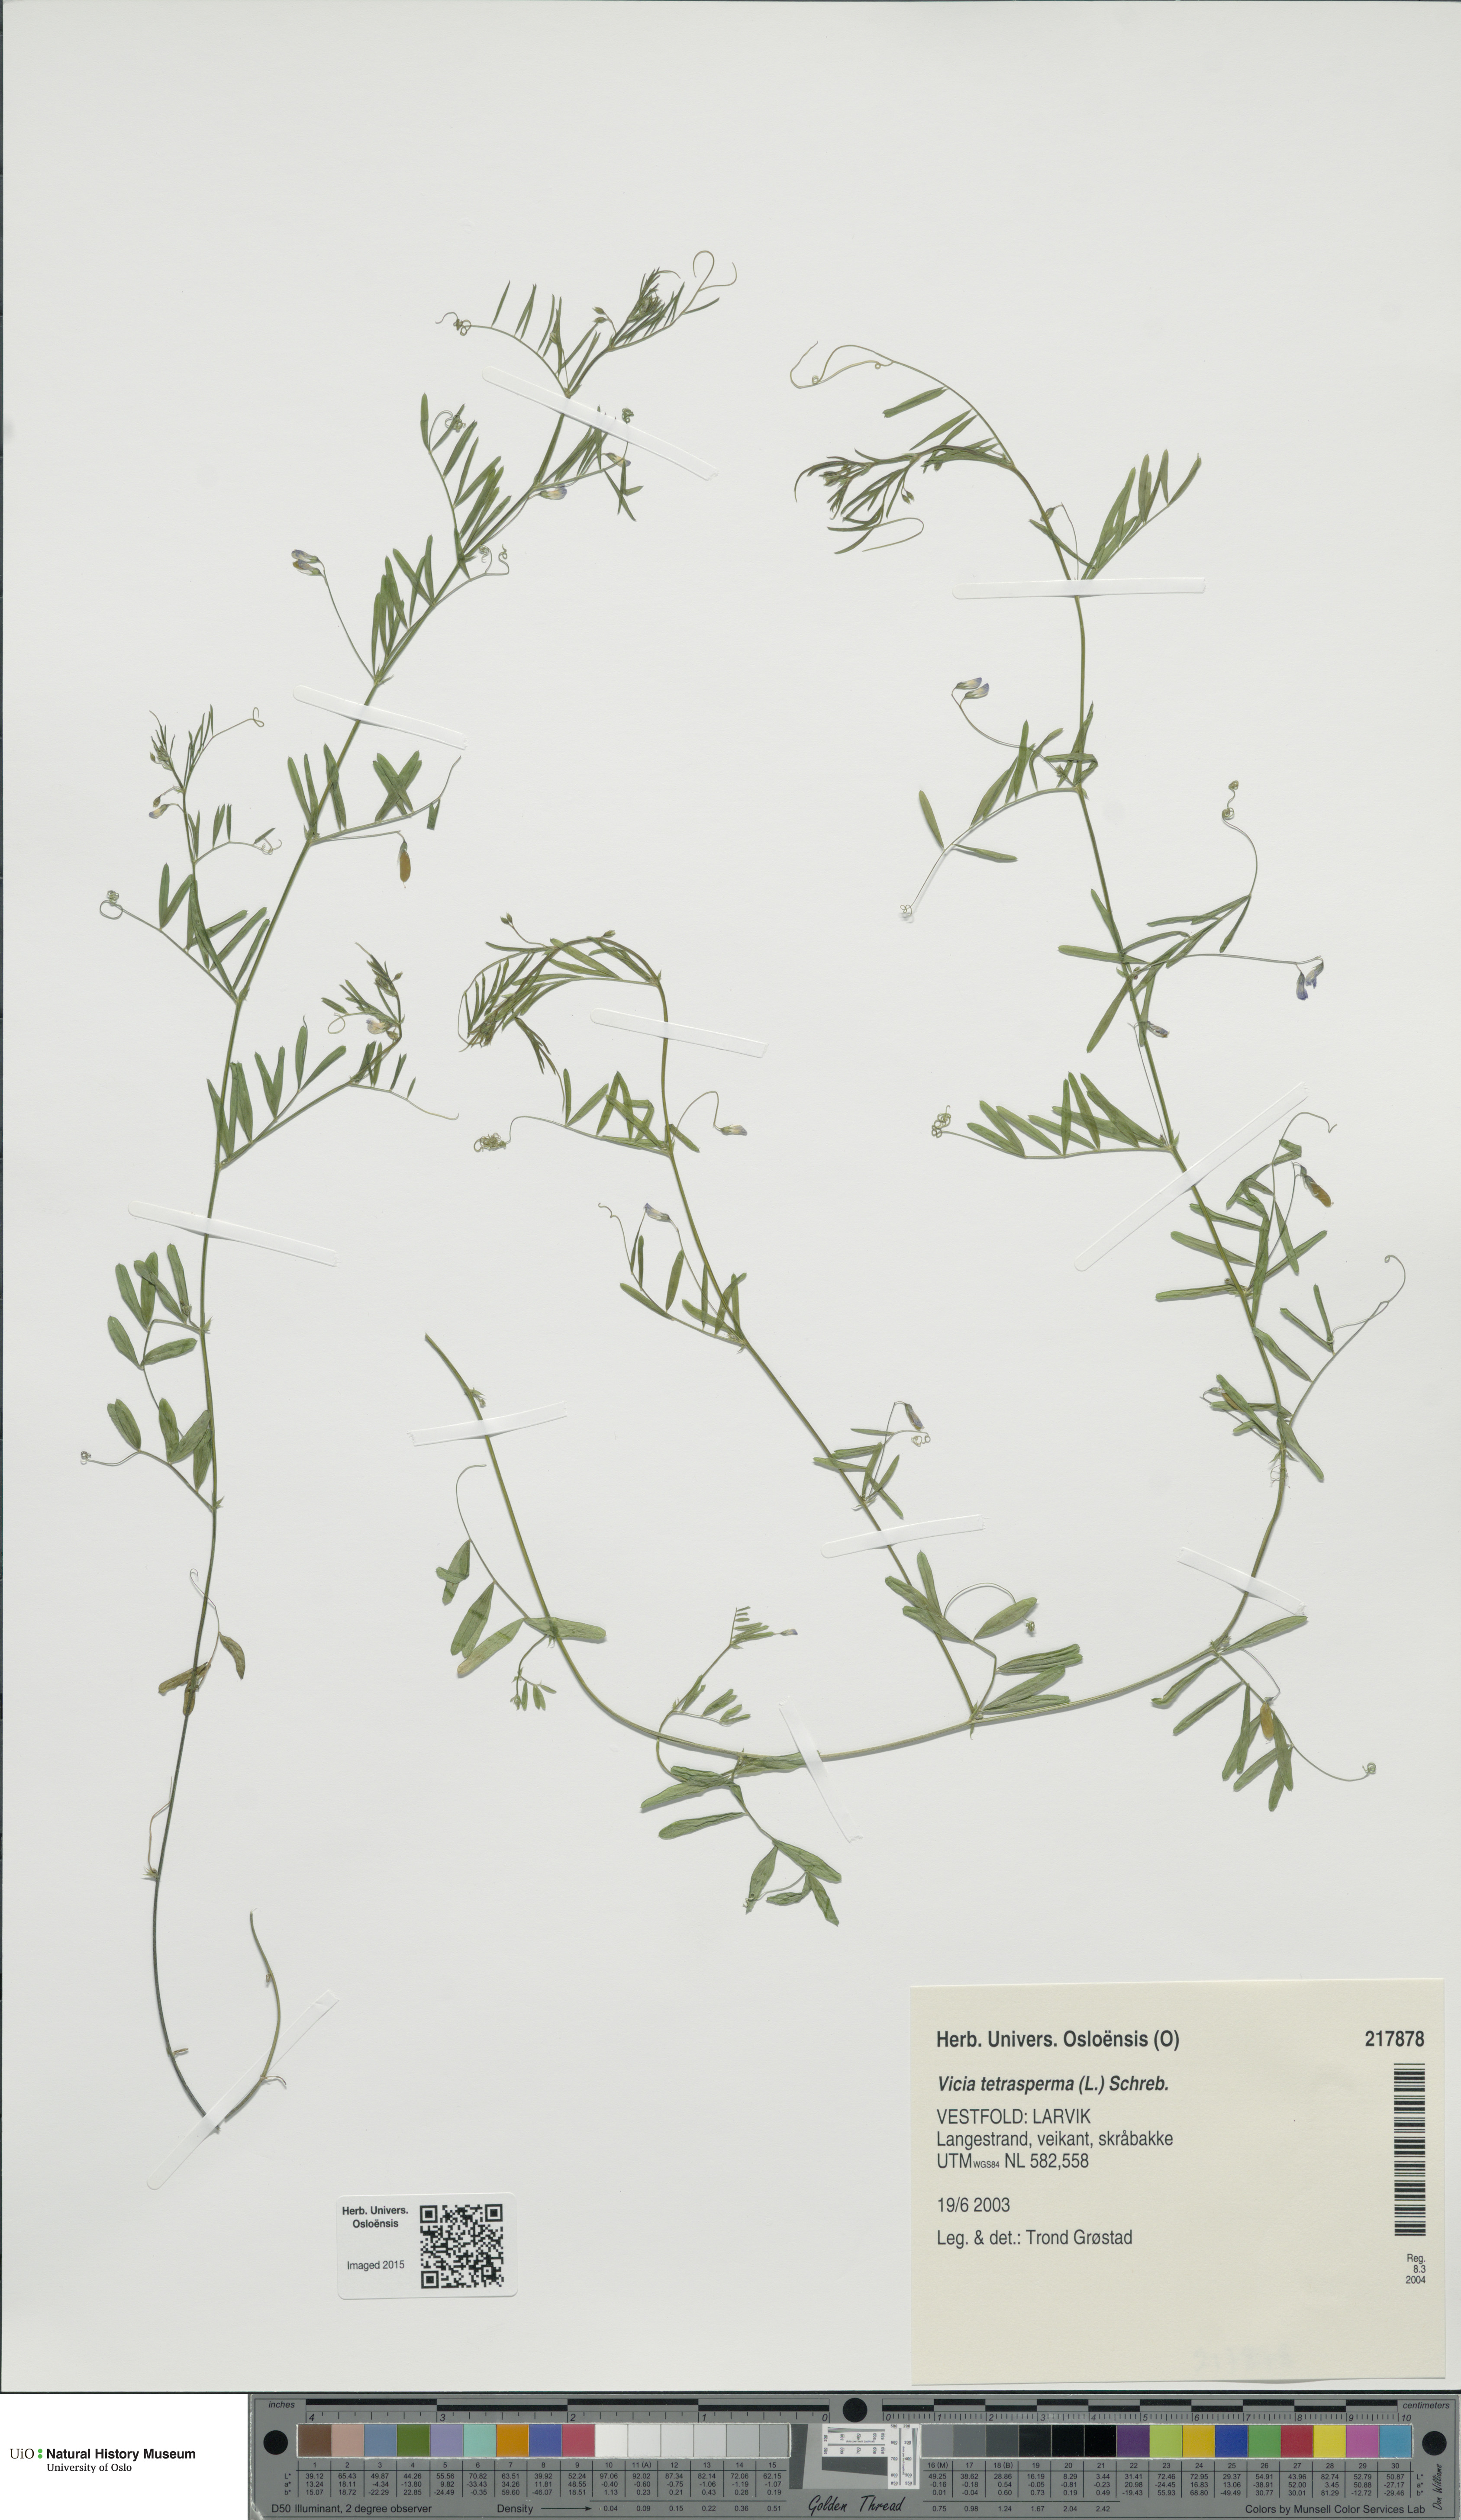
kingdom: Plantae
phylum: Tracheophyta
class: Magnoliopsida
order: Fabales
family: Fabaceae
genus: Vicia
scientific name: Vicia tetrasperma
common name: Smooth tare
